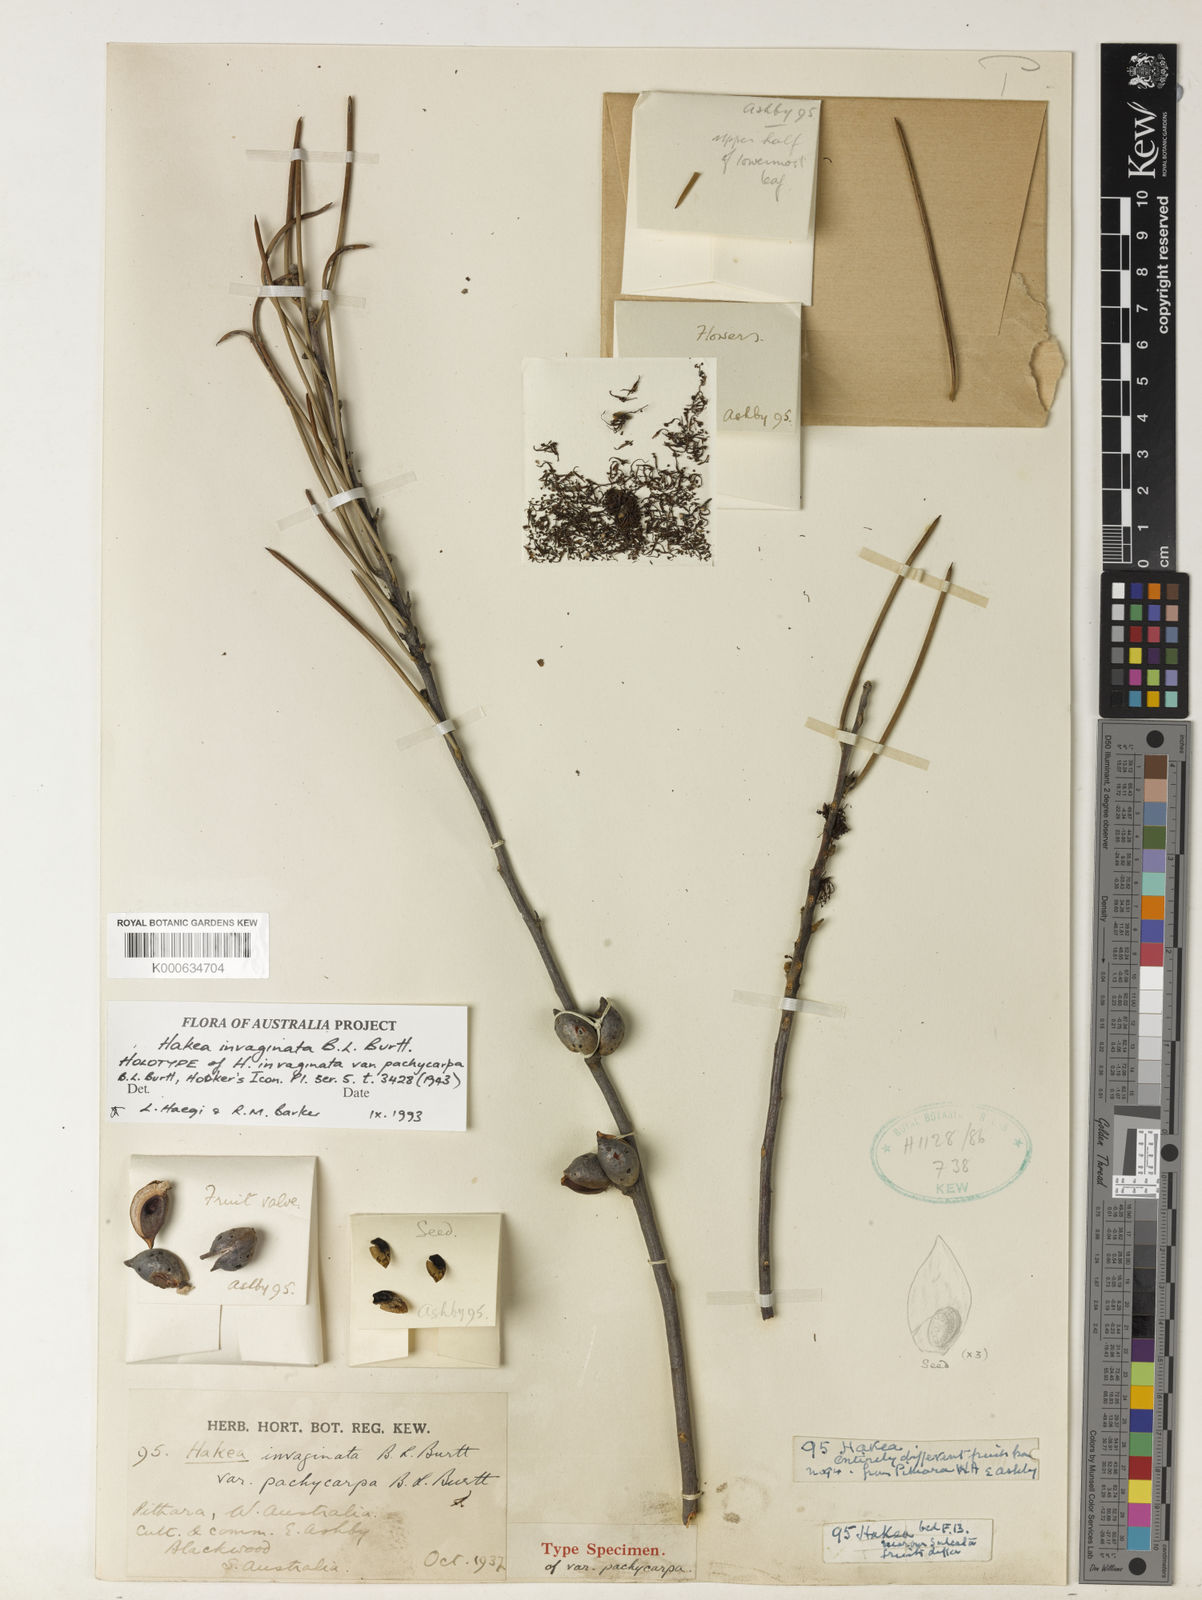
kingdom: Plantae
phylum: Tracheophyta
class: Magnoliopsida
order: Proteales
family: Proteaceae
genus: Hakea
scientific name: Hakea invaginata
